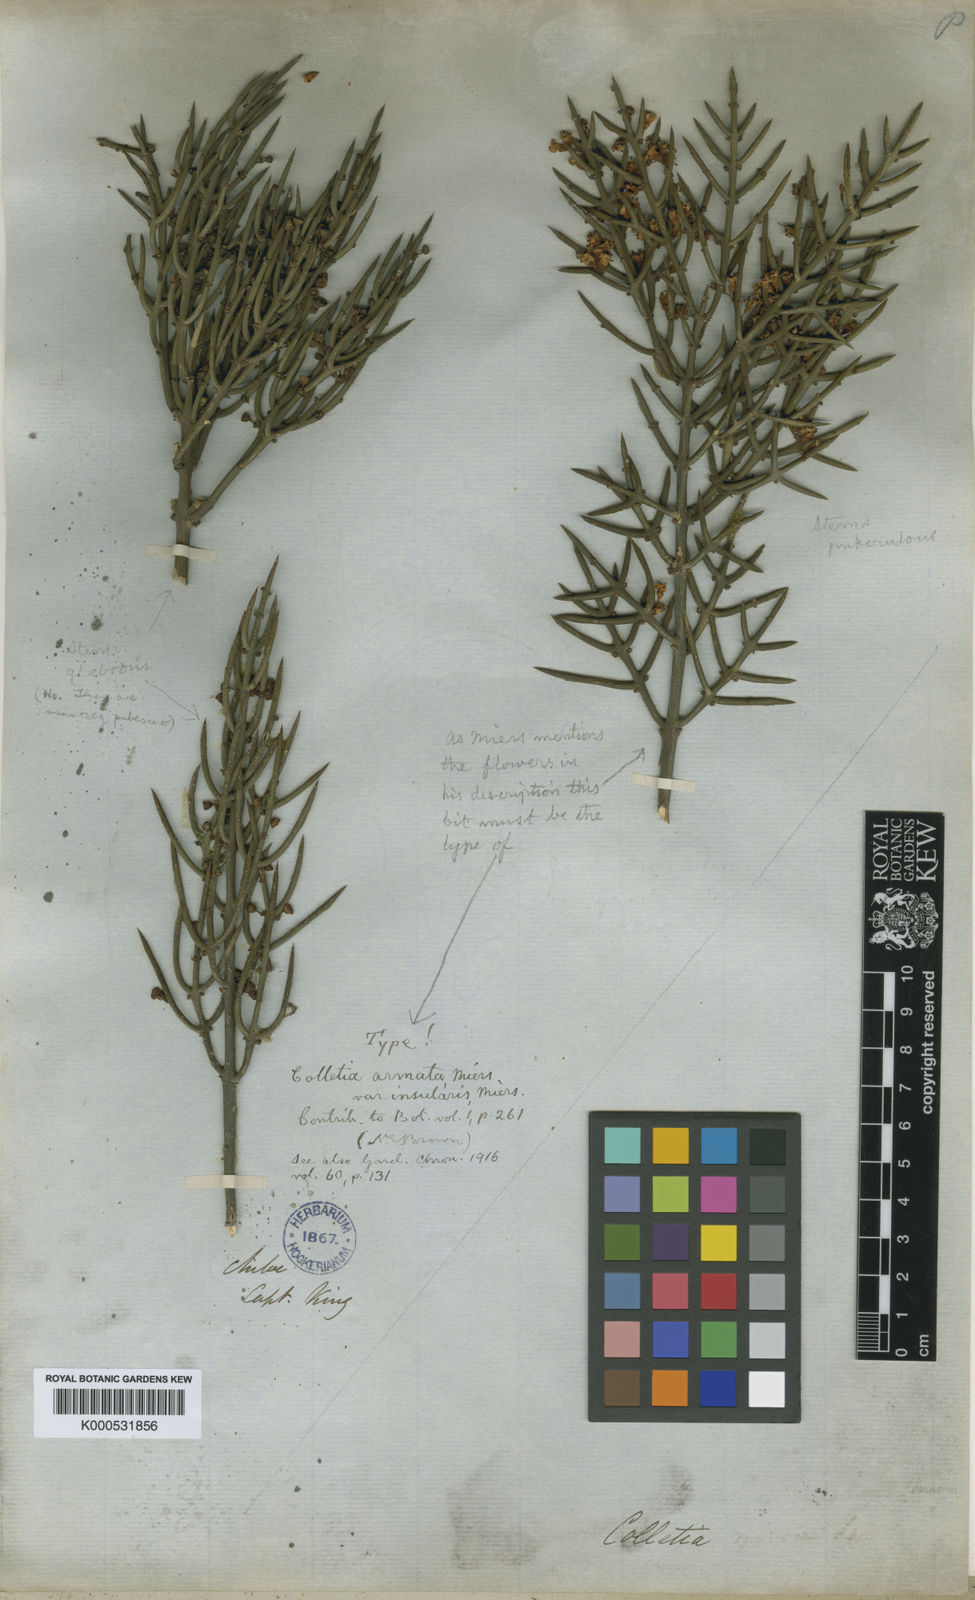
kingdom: Plantae
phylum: Tracheophyta
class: Magnoliopsida
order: Rosales
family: Rhamnaceae
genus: Colletia
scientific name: Colletia hystrix
